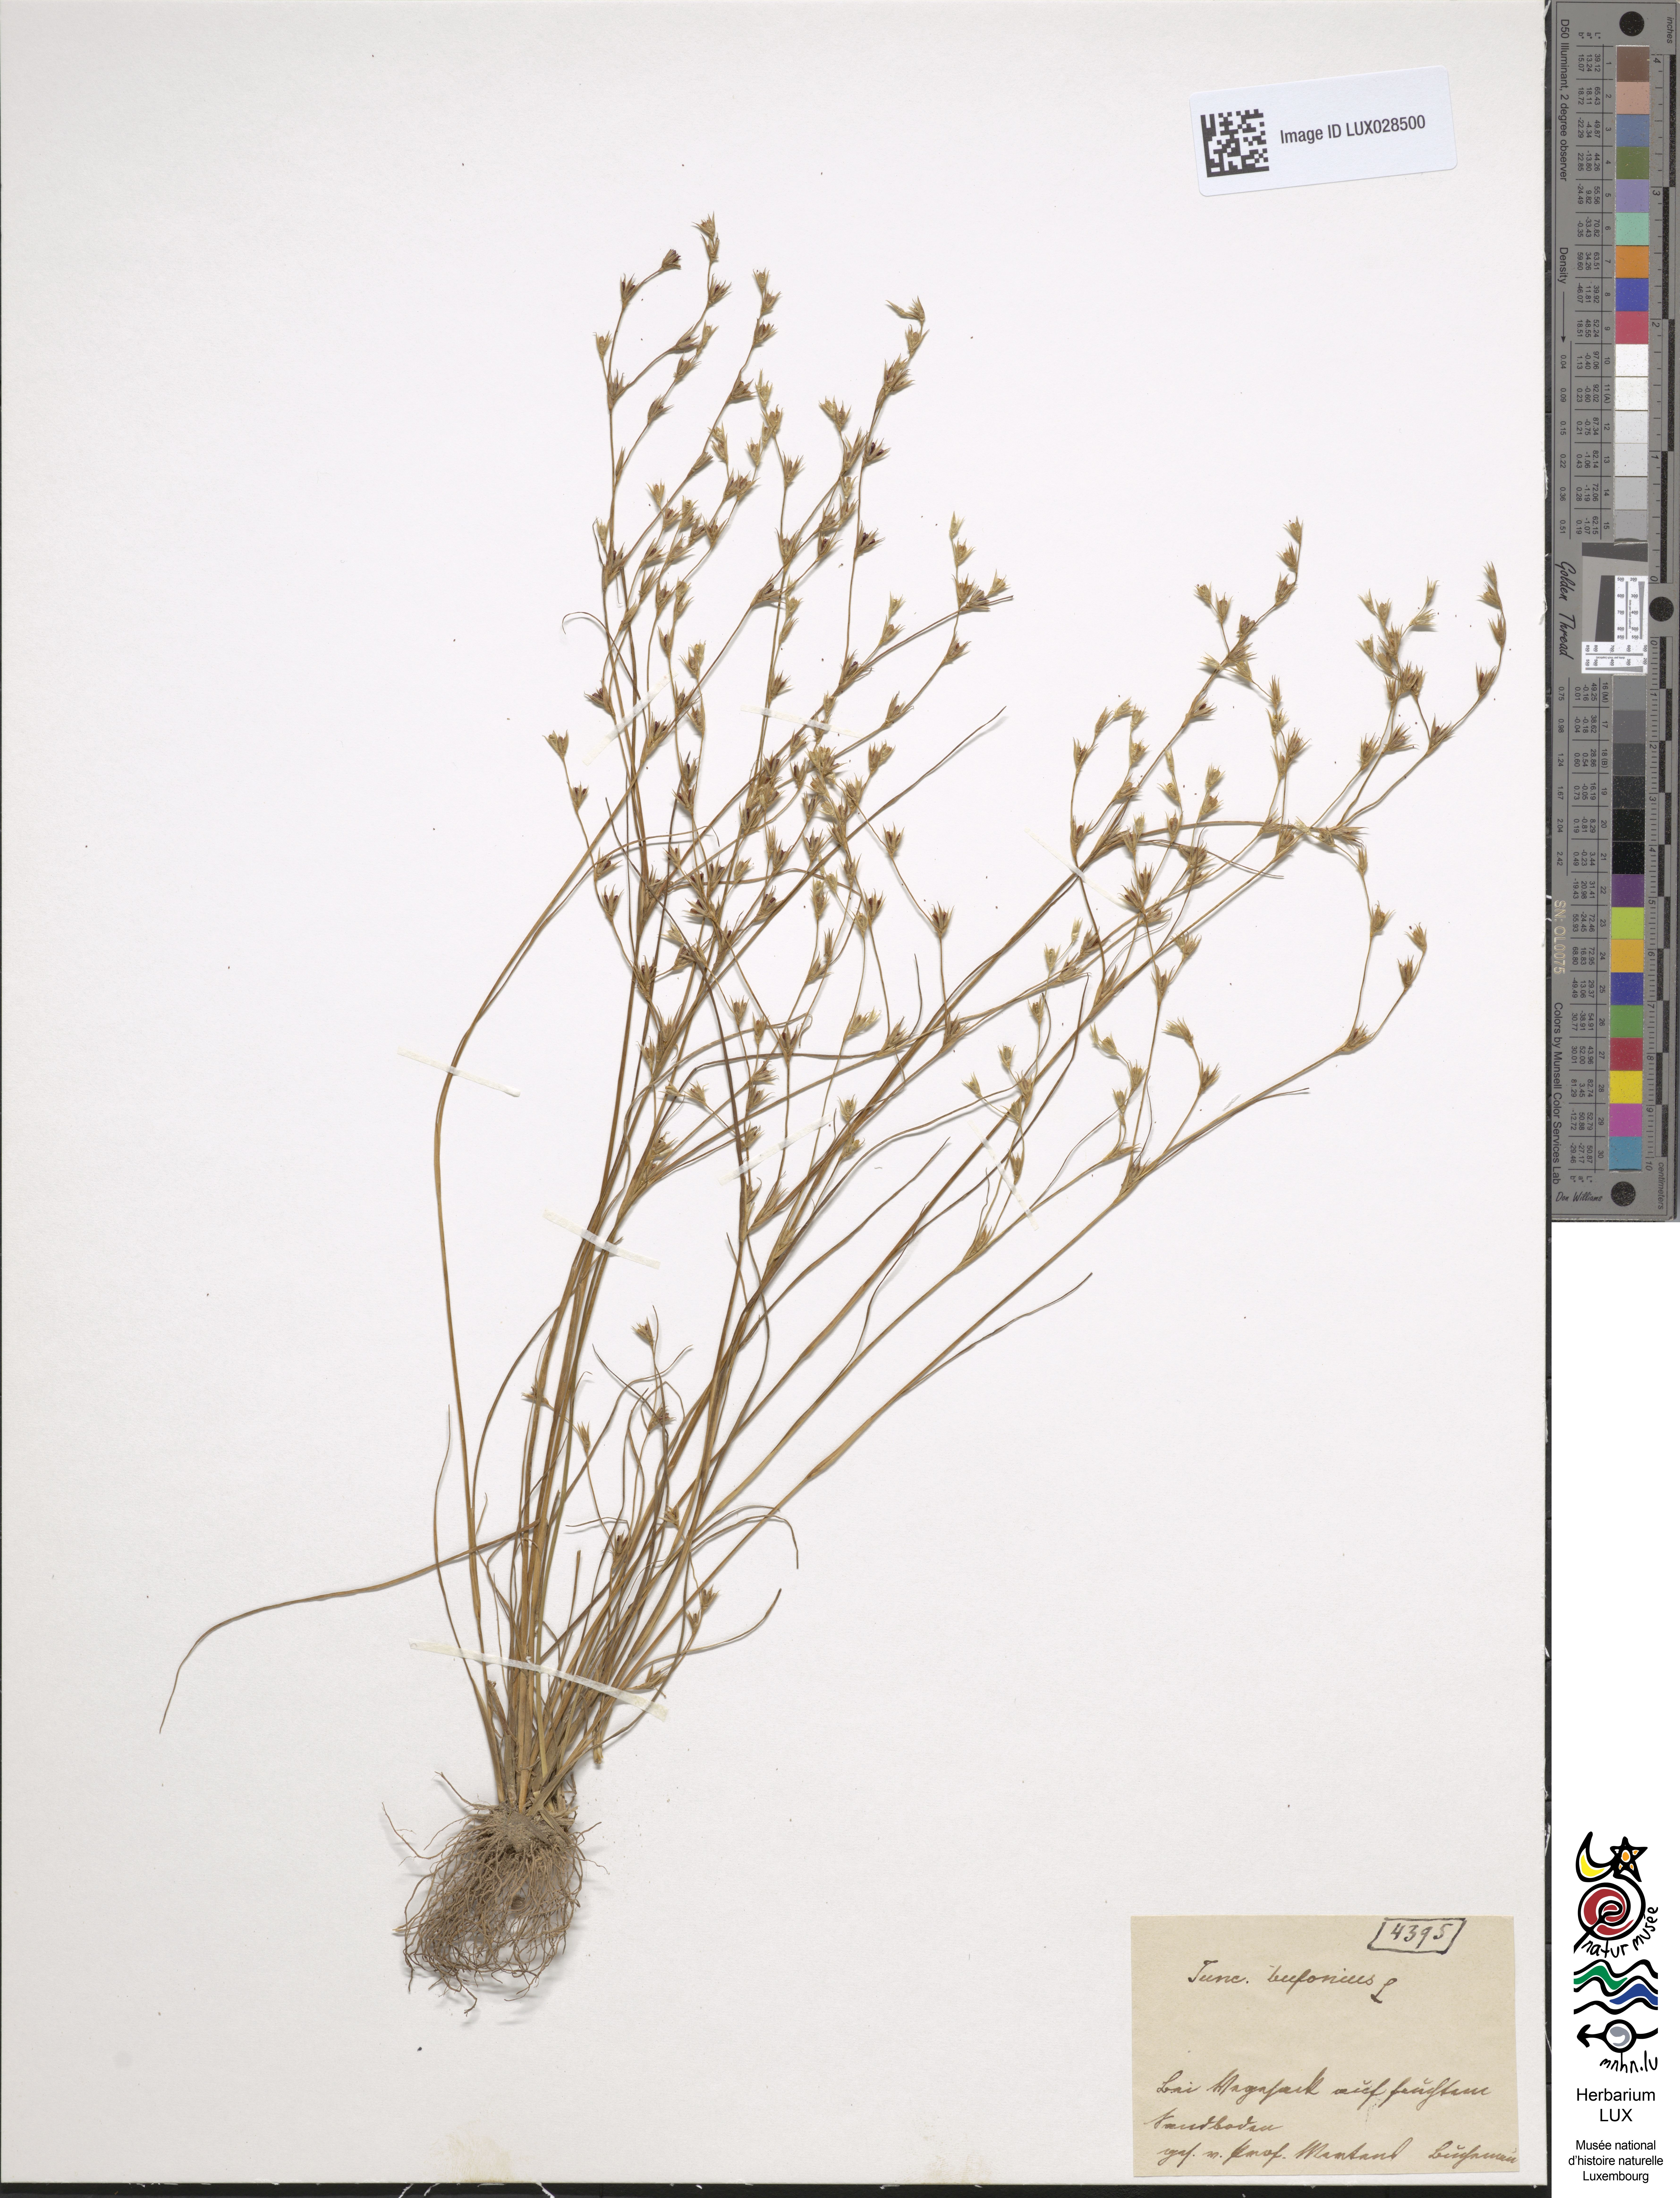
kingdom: Plantae
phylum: Tracheophyta
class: Liliopsida
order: Poales
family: Juncaceae
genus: Juncus
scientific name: Juncus bufonius
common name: Toad rush
